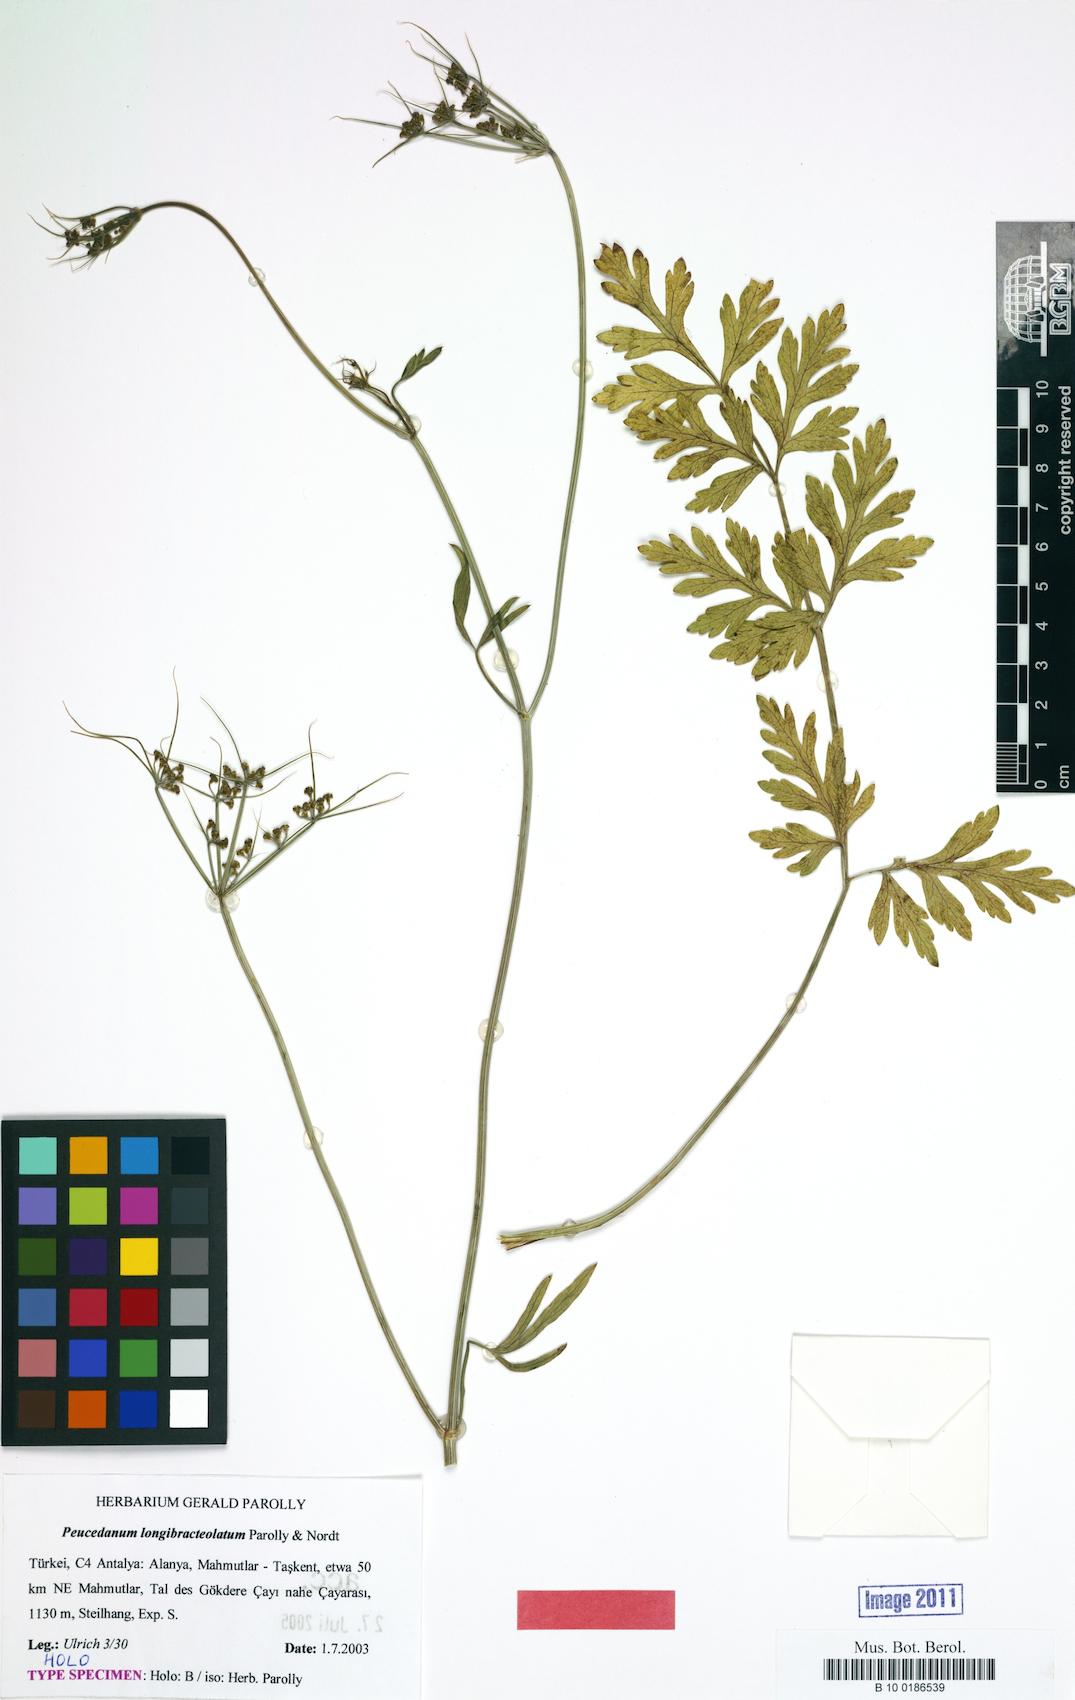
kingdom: Plantae
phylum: Tracheophyta
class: Magnoliopsida
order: Apiales
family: Apiaceae
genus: Dichoropetalum
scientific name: Dichoropetalum longibracteolatum
